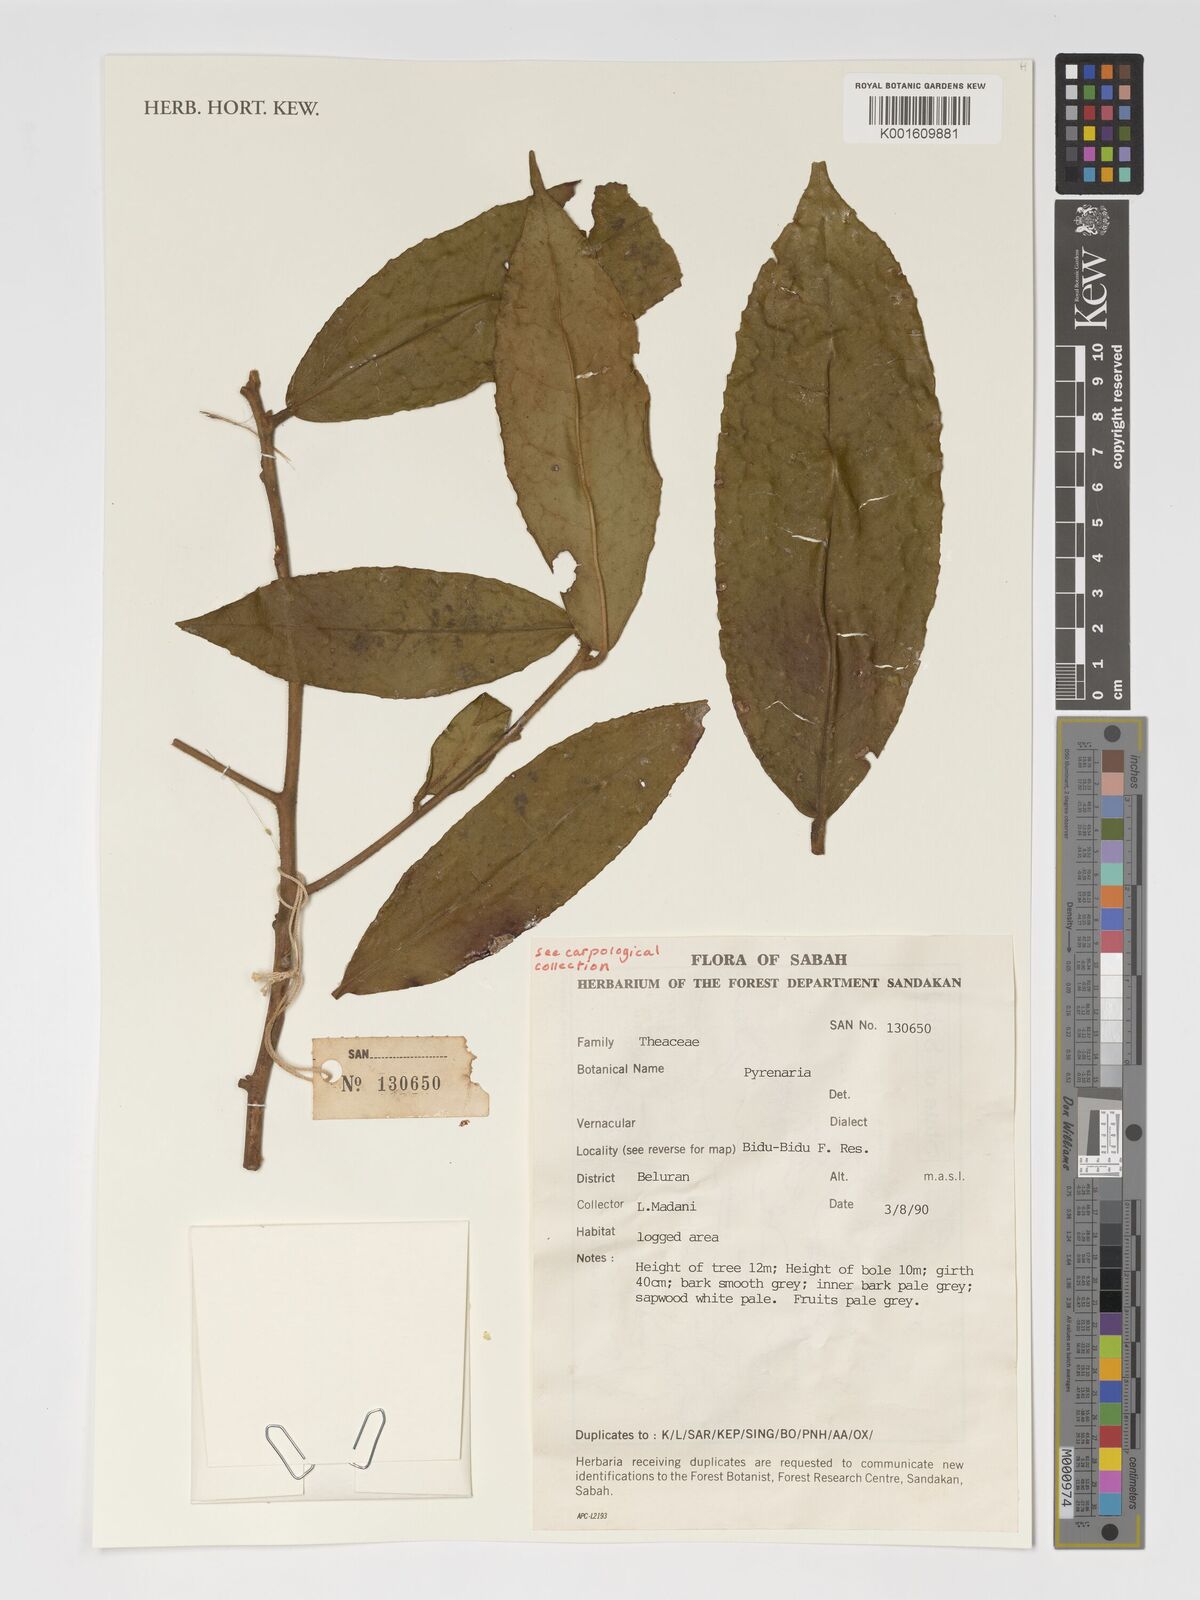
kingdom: Plantae
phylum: Tracheophyta
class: Magnoliopsida
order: Ericales
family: Theaceae
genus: Pyrenaria
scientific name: Pyrenaria
